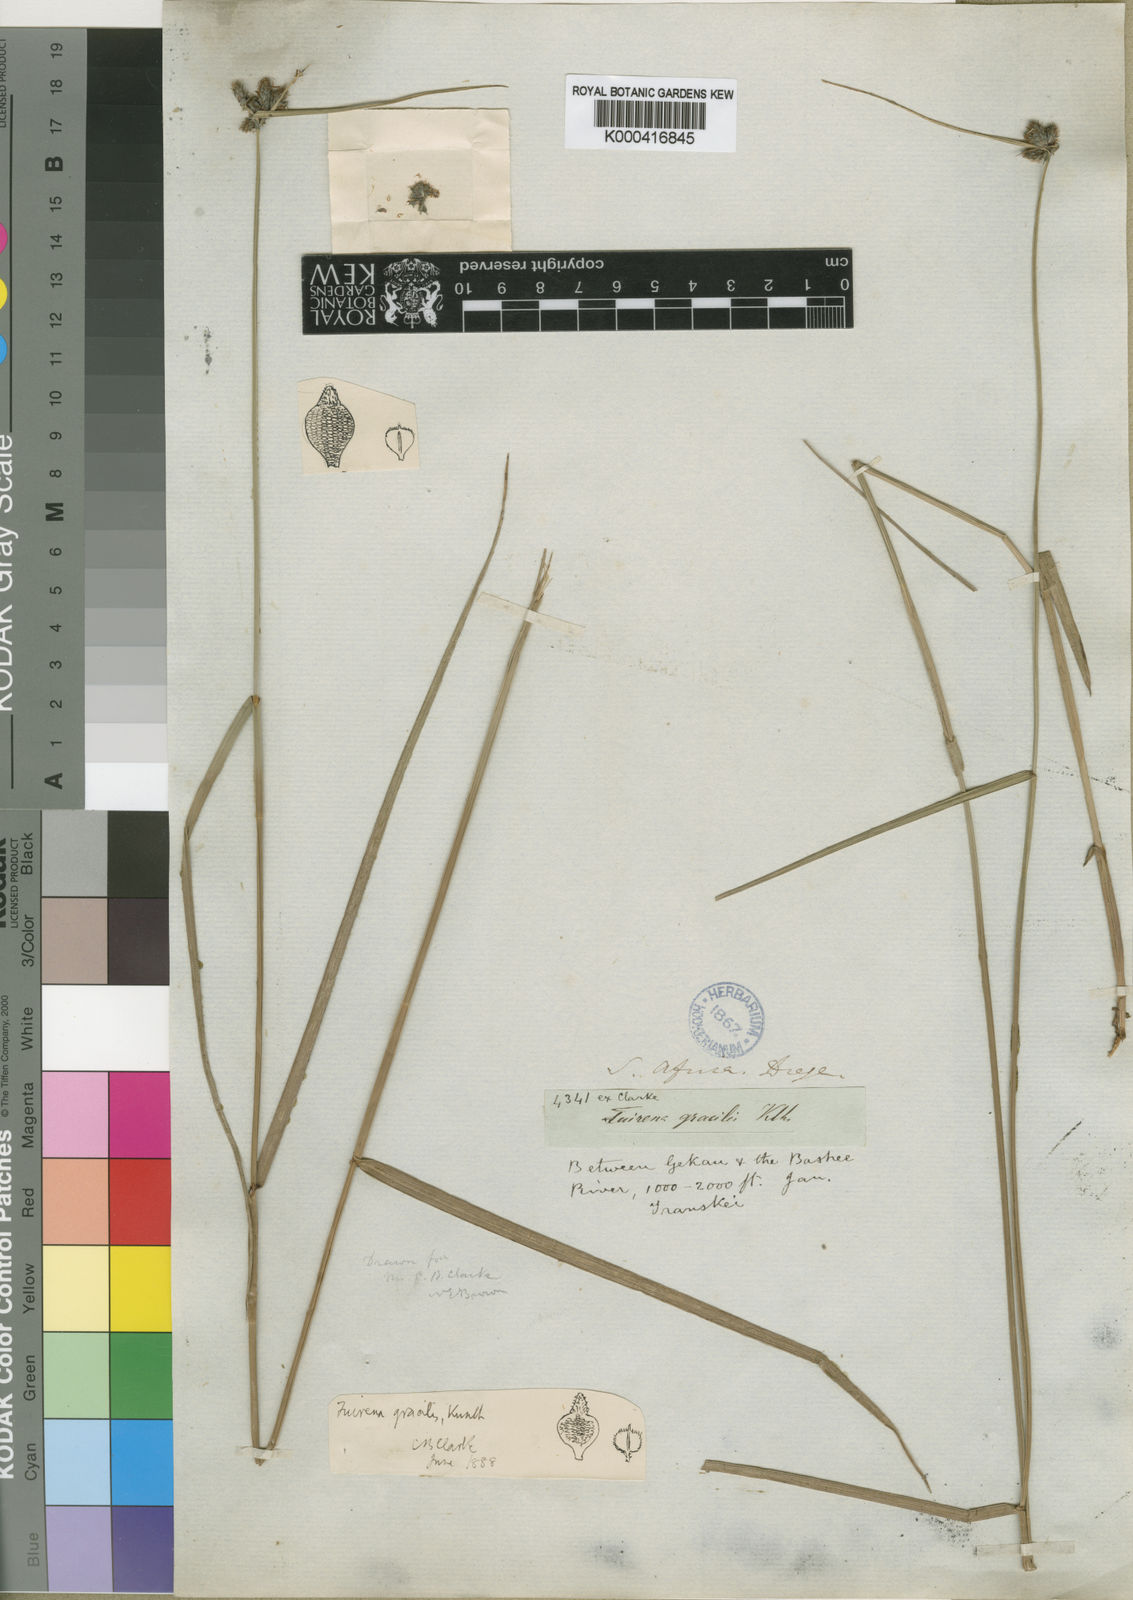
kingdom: Plantae
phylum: Tracheophyta
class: Liliopsida
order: Poales
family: Cyperaceae
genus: Fuirena
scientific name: Fuirena coerulescens
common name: Blue umbrella-sedge
